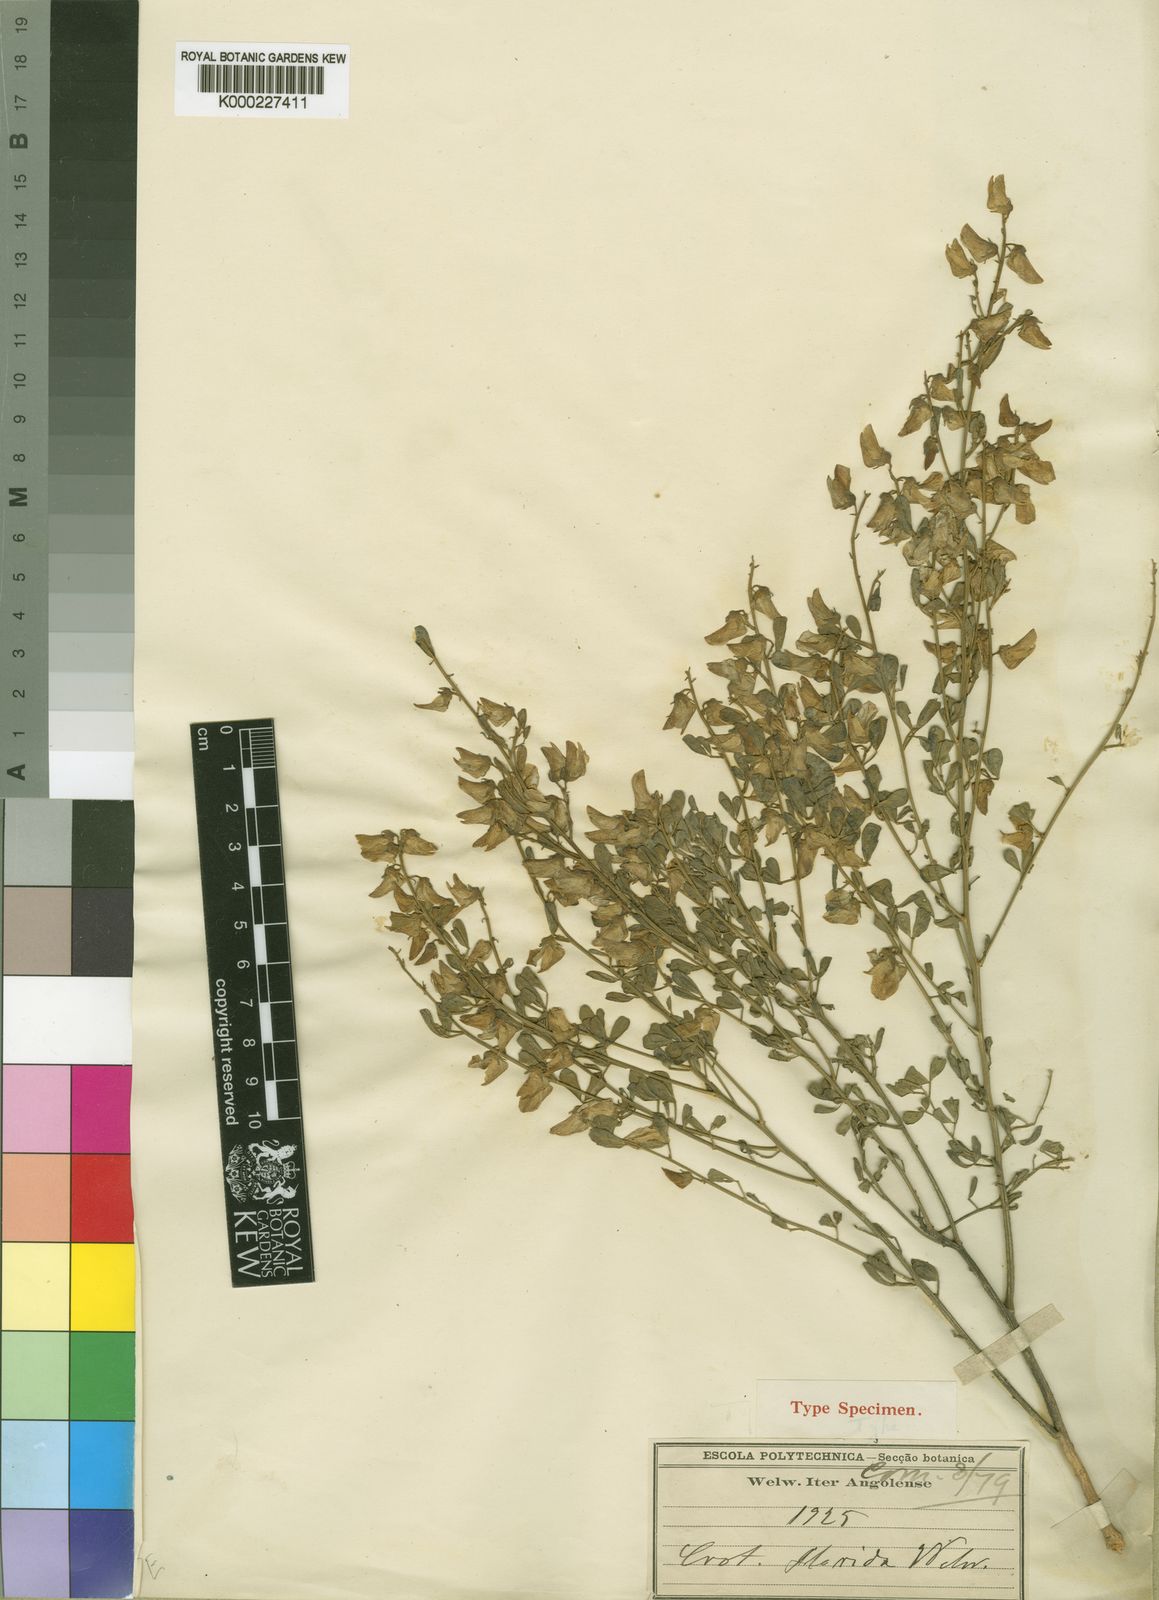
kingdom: Plantae
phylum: Tracheophyta
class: Magnoliopsida
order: Fabales
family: Fabaceae
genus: Crotalaria
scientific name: Crotalaria florida
